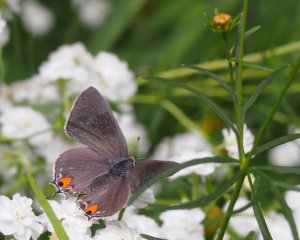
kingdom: Animalia
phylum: Arthropoda
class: Insecta
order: Lepidoptera
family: Lycaenidae
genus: Strymon
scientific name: Strymon melinus
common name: Gray Hairstreak
